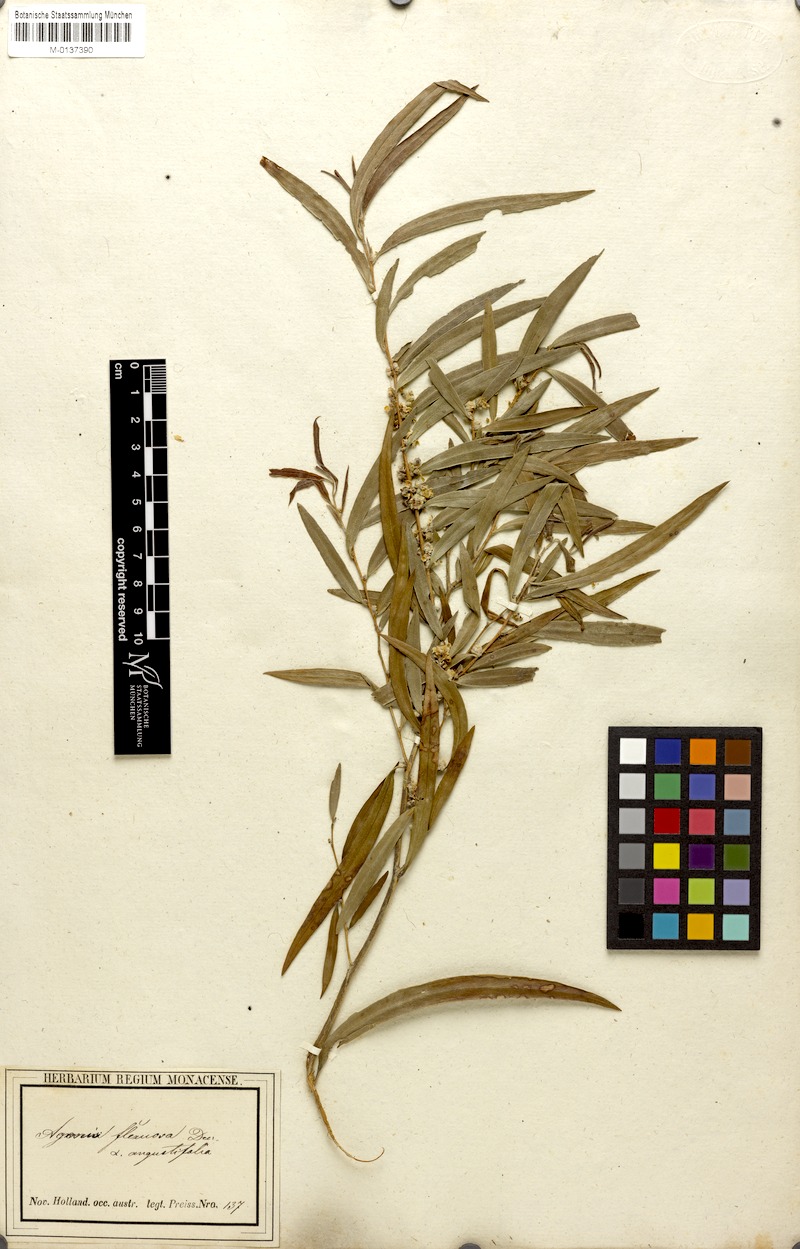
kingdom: Plantae
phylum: Tracheophyta
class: Magnoliopsida
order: Myrtales
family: Myrtaceae
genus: Agonis
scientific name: Agonis flexuosa
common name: Willow myrtle
